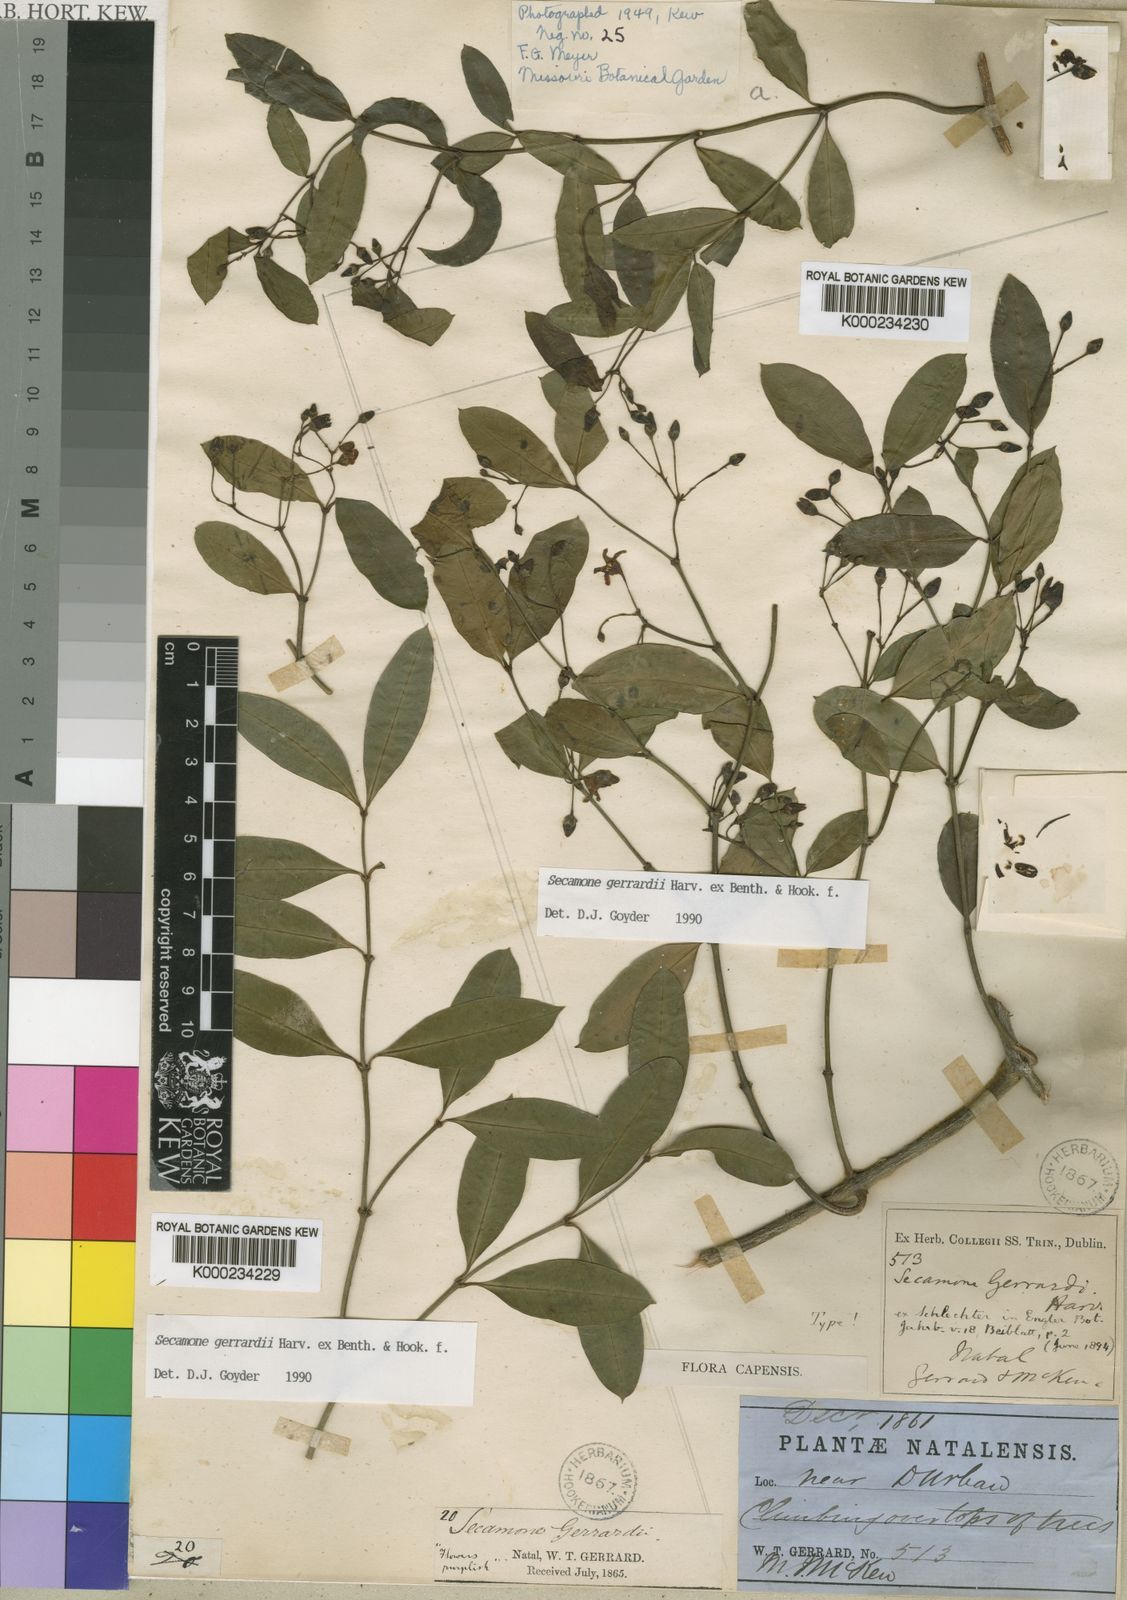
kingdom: Plantae
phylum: Tracheophyta
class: Magnoliopsida
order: Gentianales
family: Apocynaceae
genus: Secamone
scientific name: Secamone gerrardii
